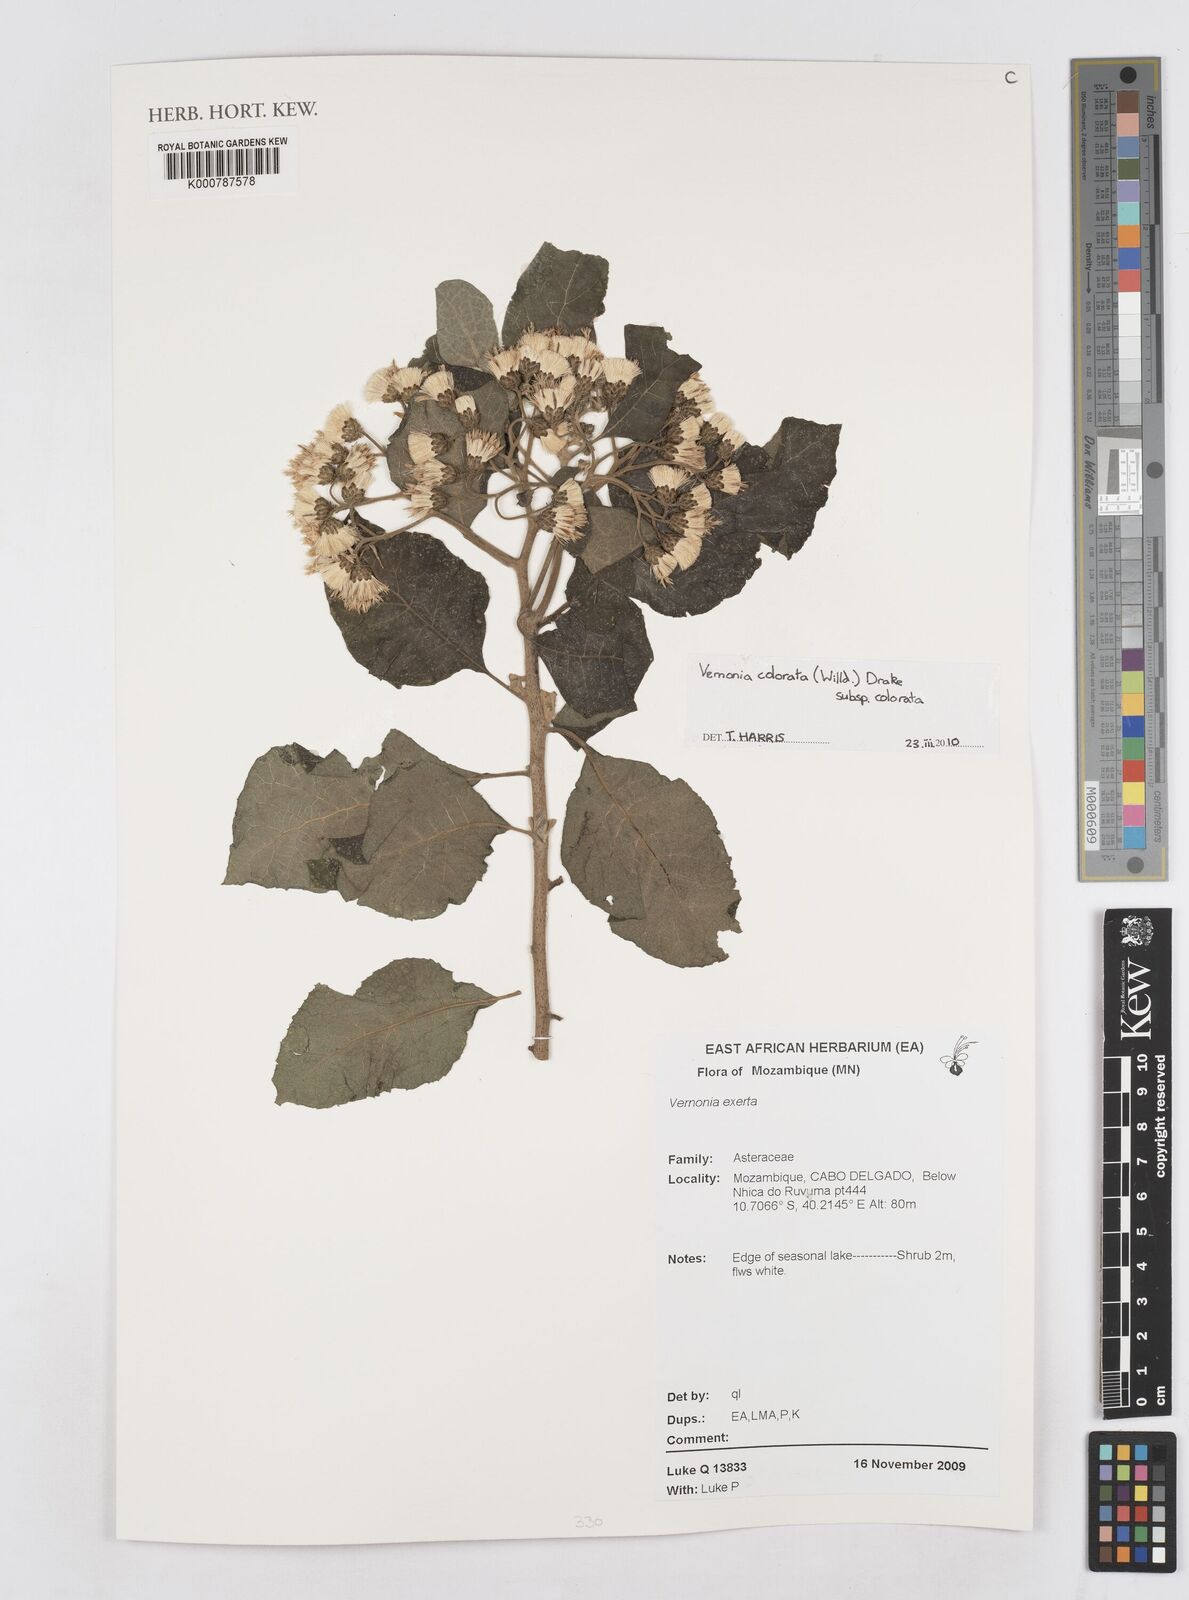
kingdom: Plantae
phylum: Tracheophyta
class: Magnoliopsida
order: Asterales
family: Asteraceae
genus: Vernonia
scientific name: Vernonia colorata
